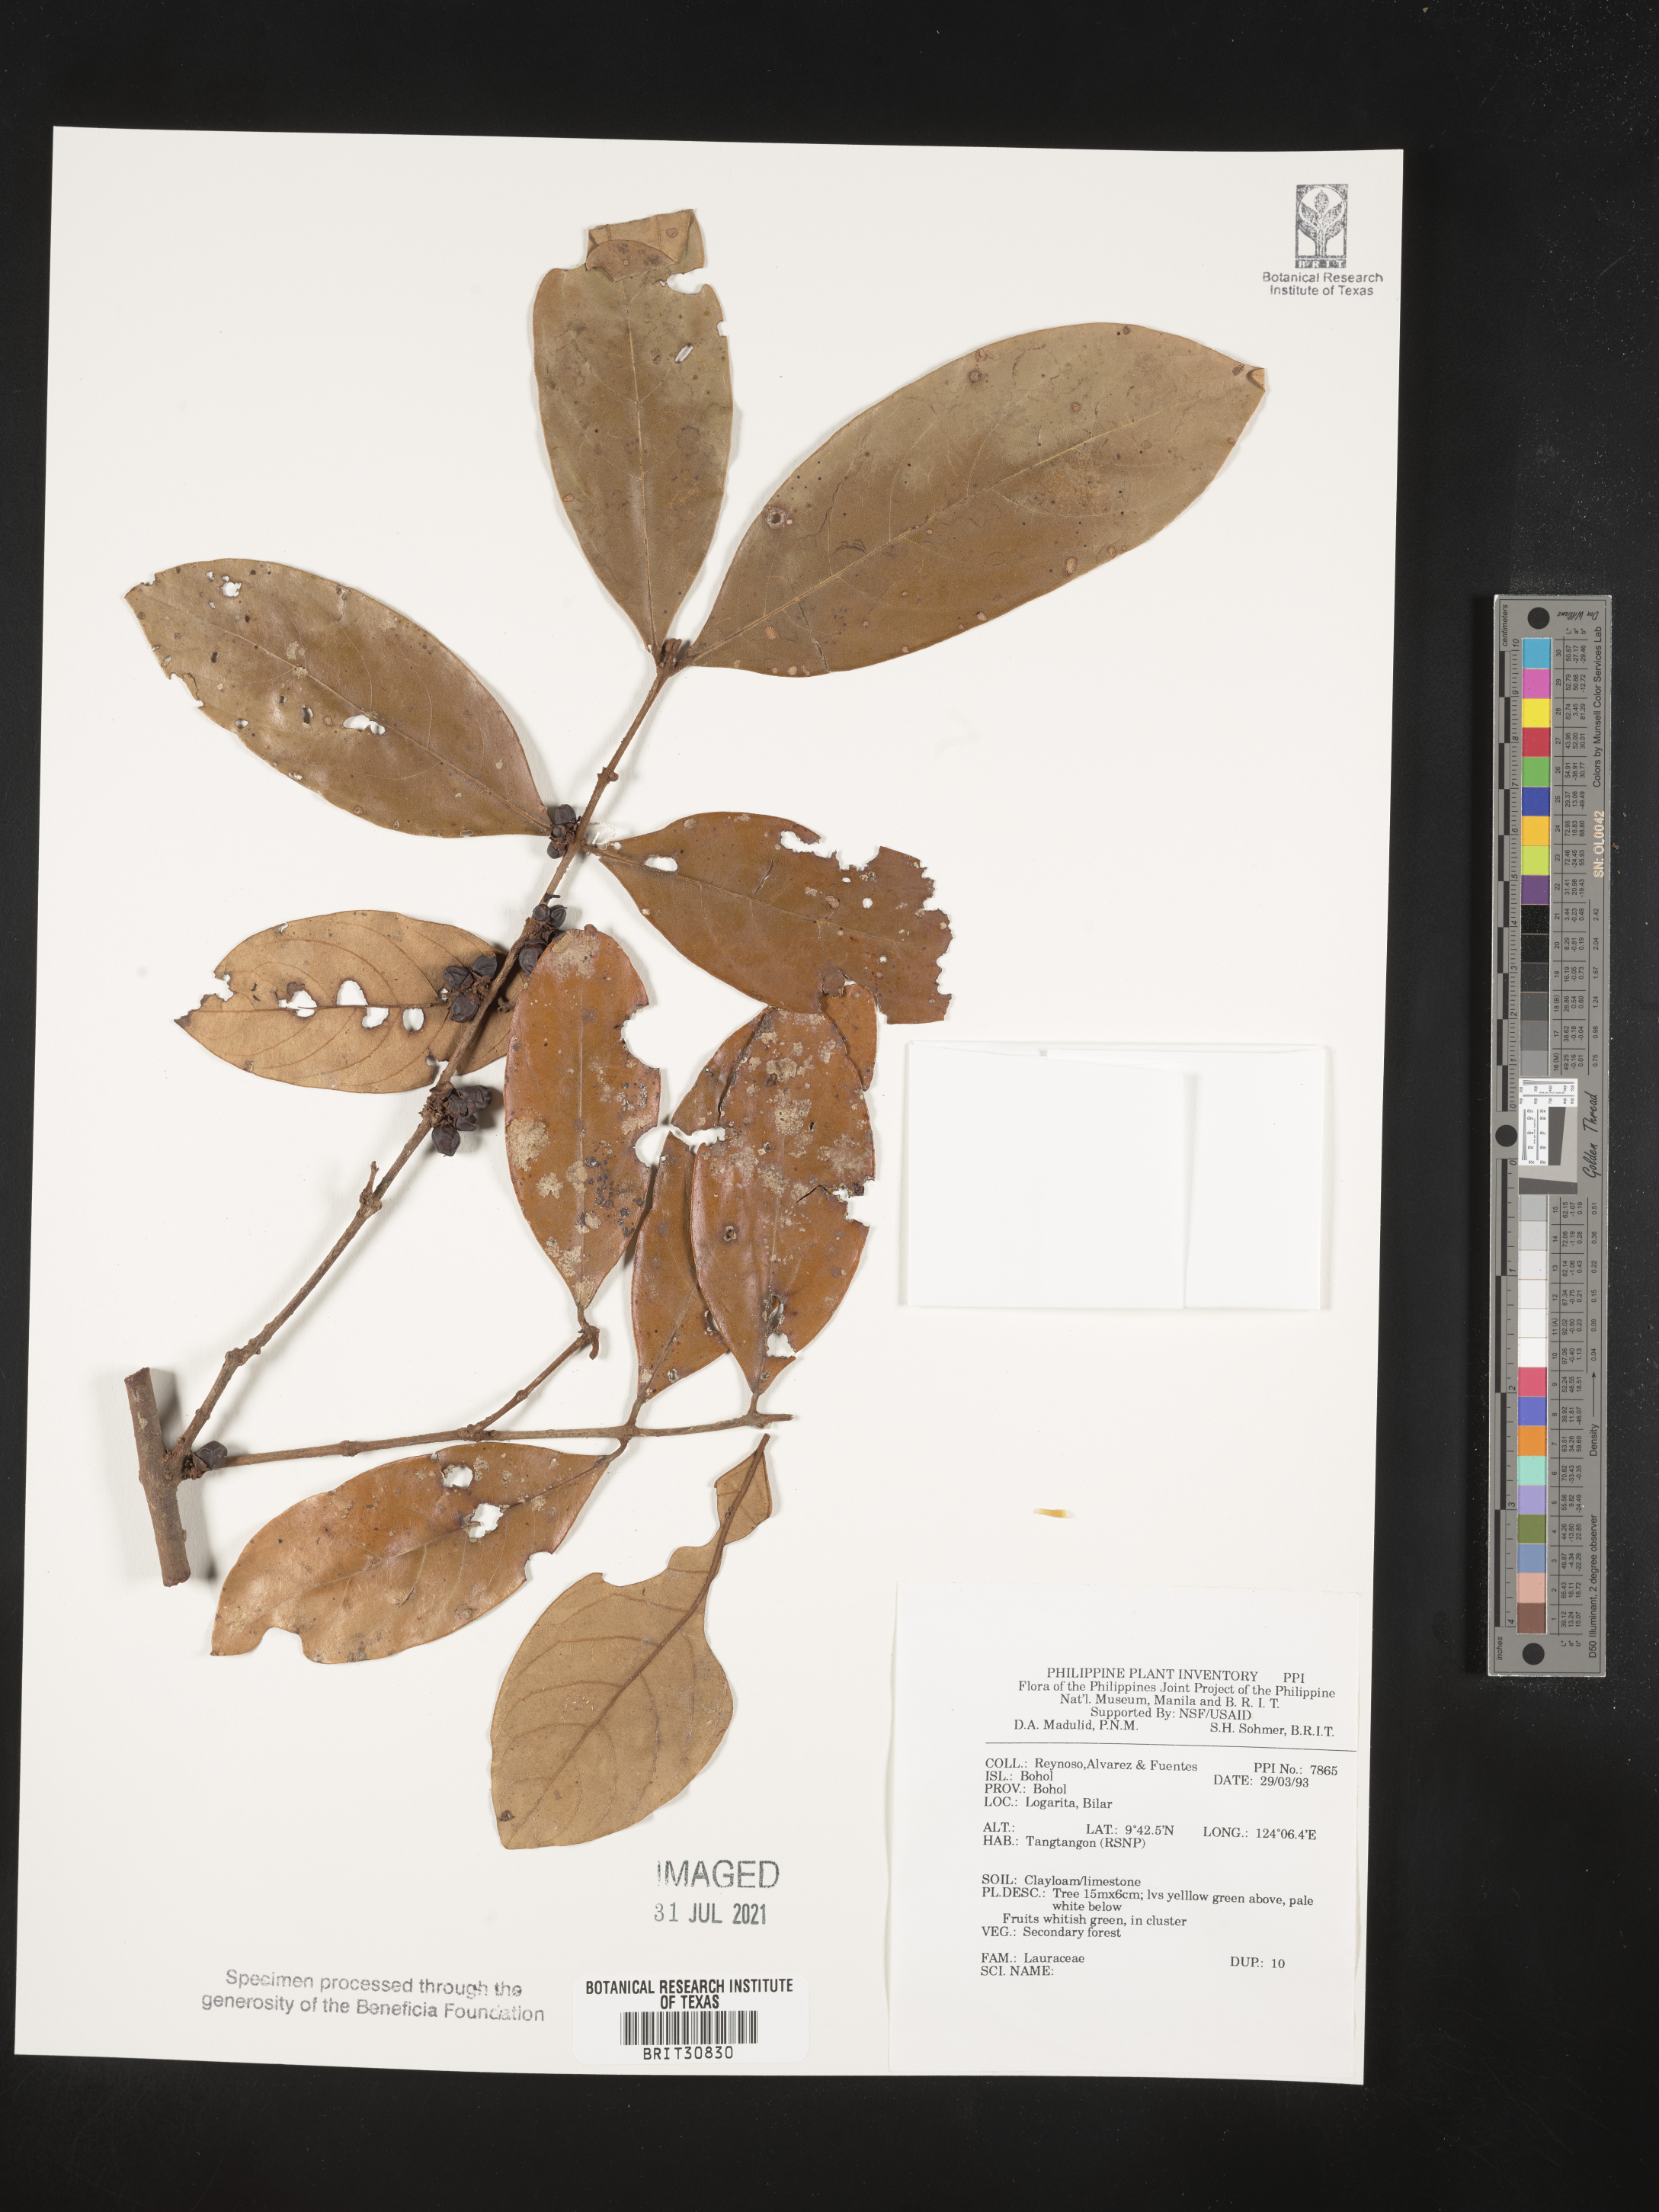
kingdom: Plantae
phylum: Tracheophyta
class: Magnoliopsida
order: Laurales
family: Lauraceae
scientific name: Lauraceae
